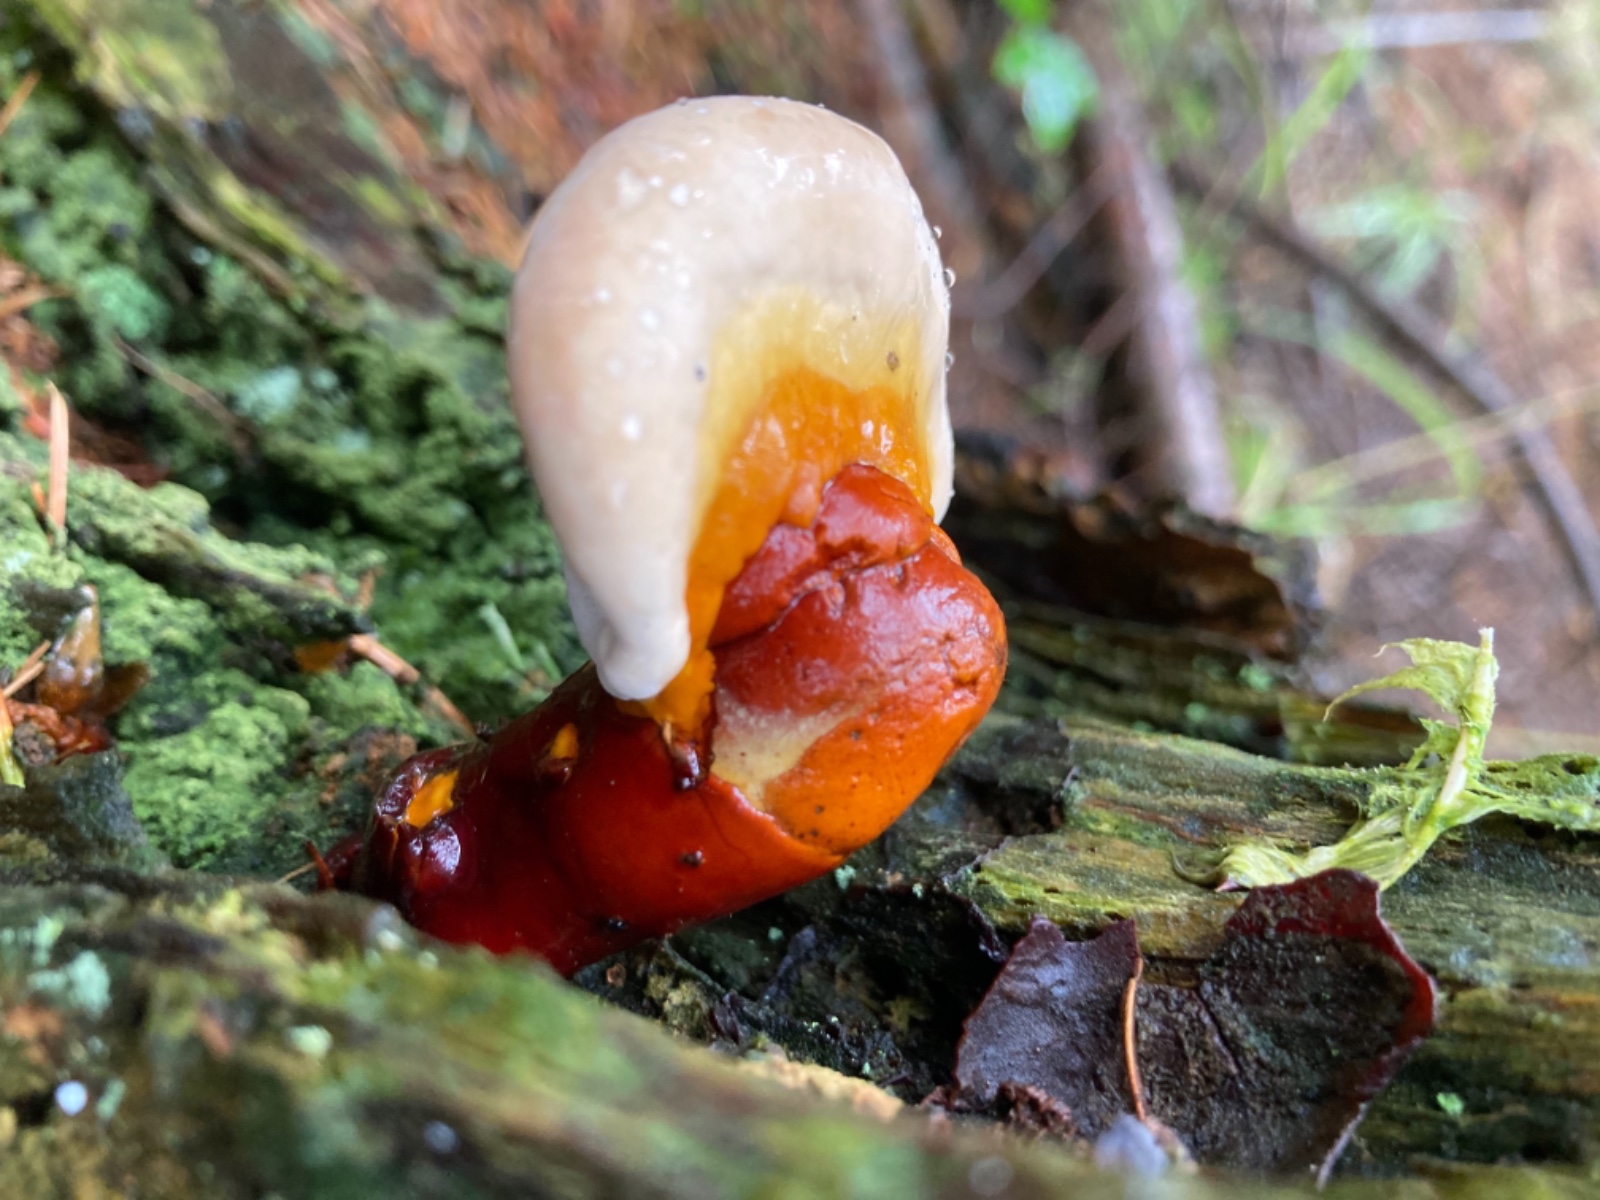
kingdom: Fungi
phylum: Basidiomycota
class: Agaricomycetes
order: Polyporales
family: Polyporaceae
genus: Ganoderma
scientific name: Ganoderma lucidum
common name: skinnende lakporesvamp
